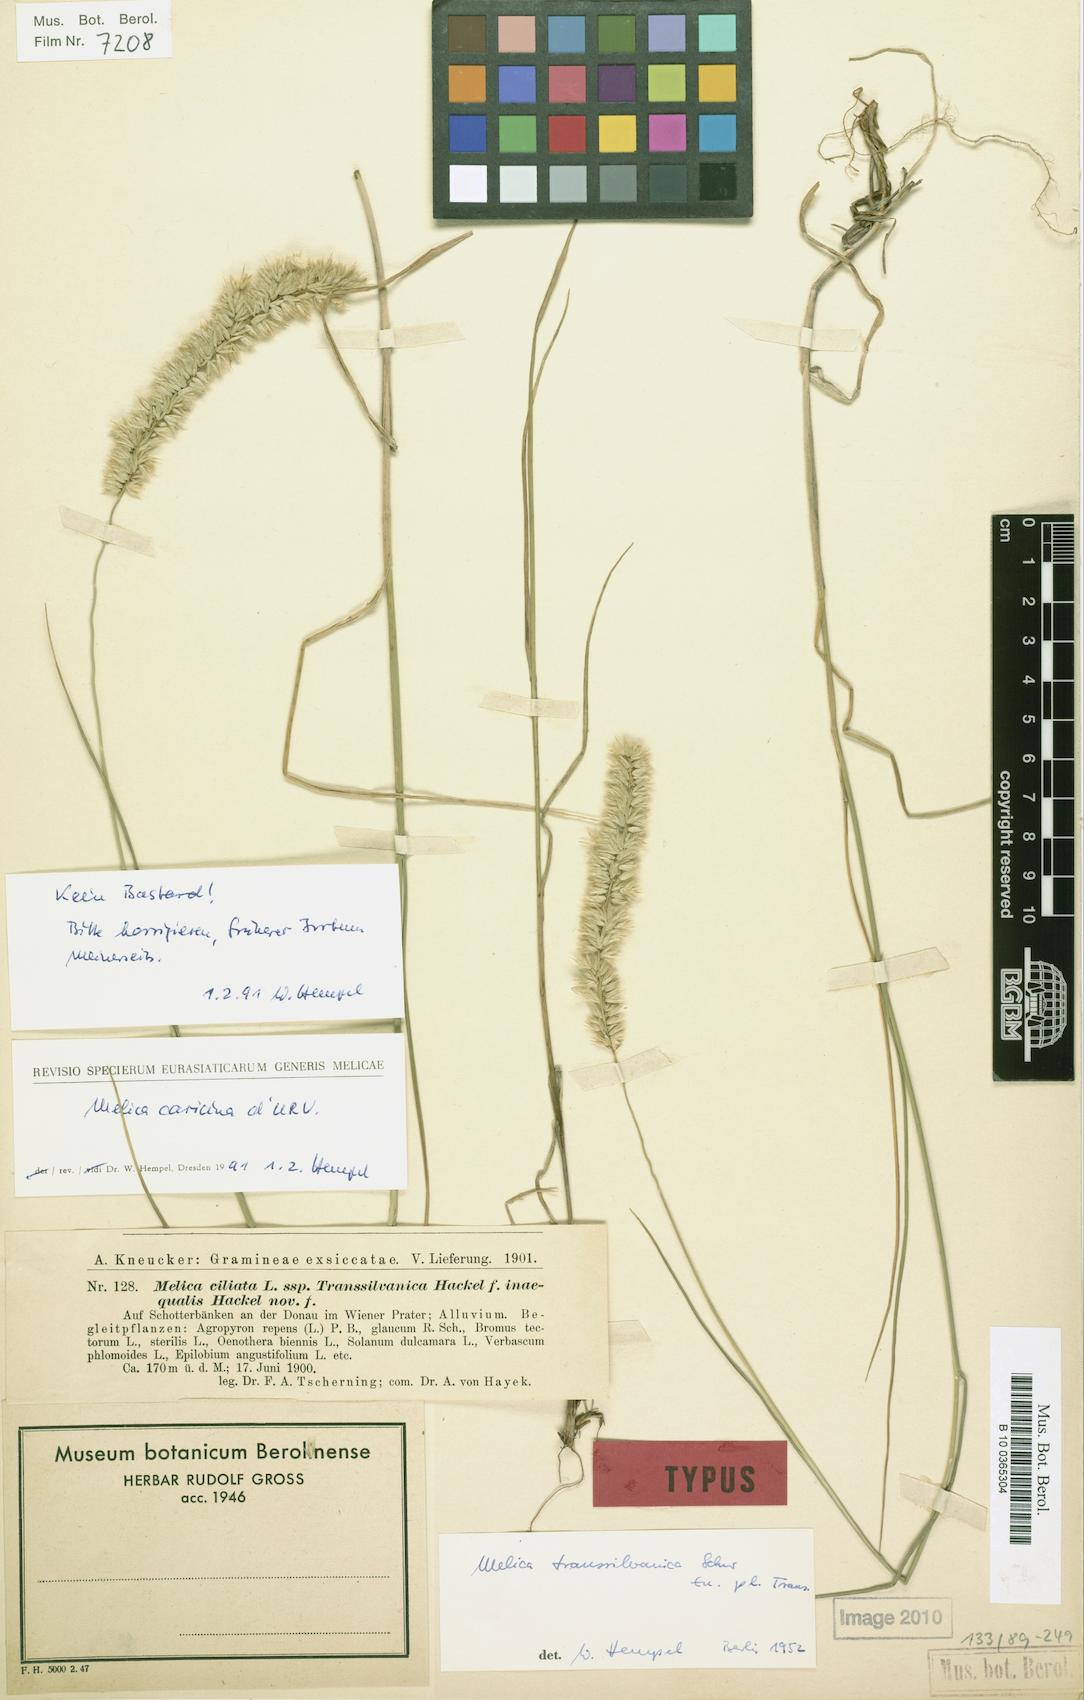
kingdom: Plantae
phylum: Tracheophyta
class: Liliopsida
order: Poales
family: Poaceae
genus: Melica
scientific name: Melica ciliata
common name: Hairy melicgrass
